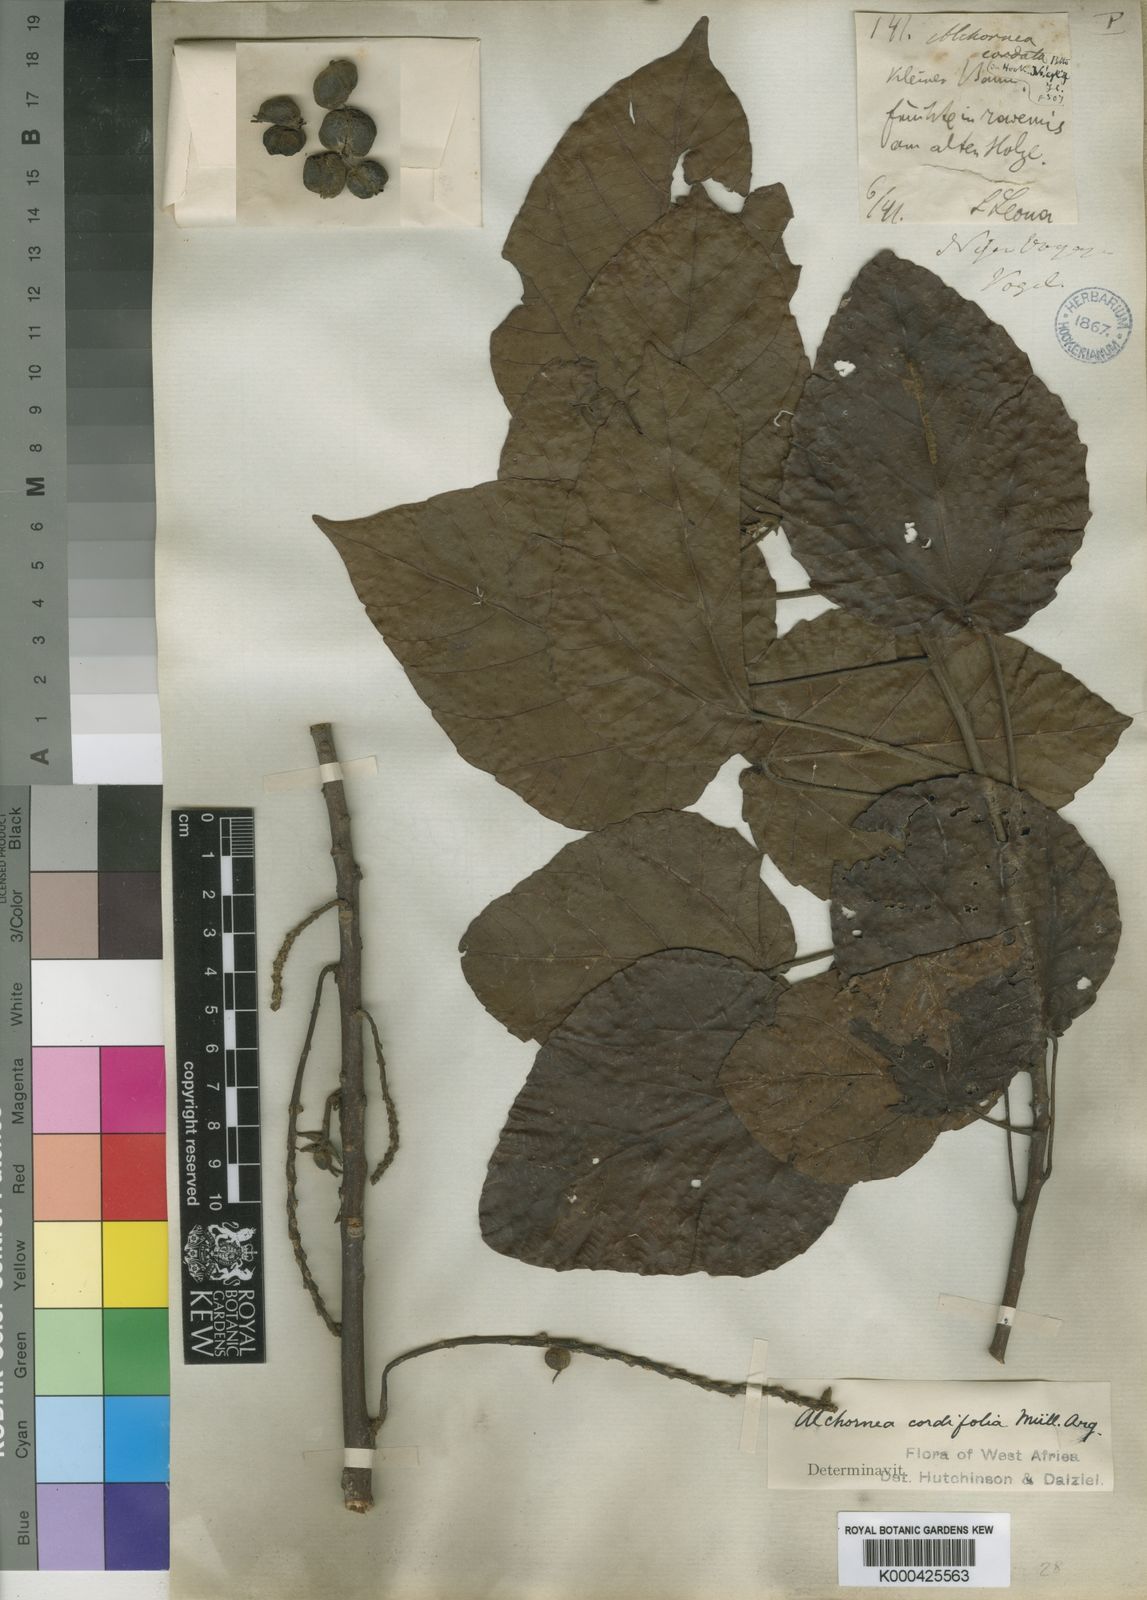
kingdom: Plantae
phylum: Tracheophyta
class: Magnoliopsida
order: Malpighiales
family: Euphorbiaceae
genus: Alchornea
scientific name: Alchornea
